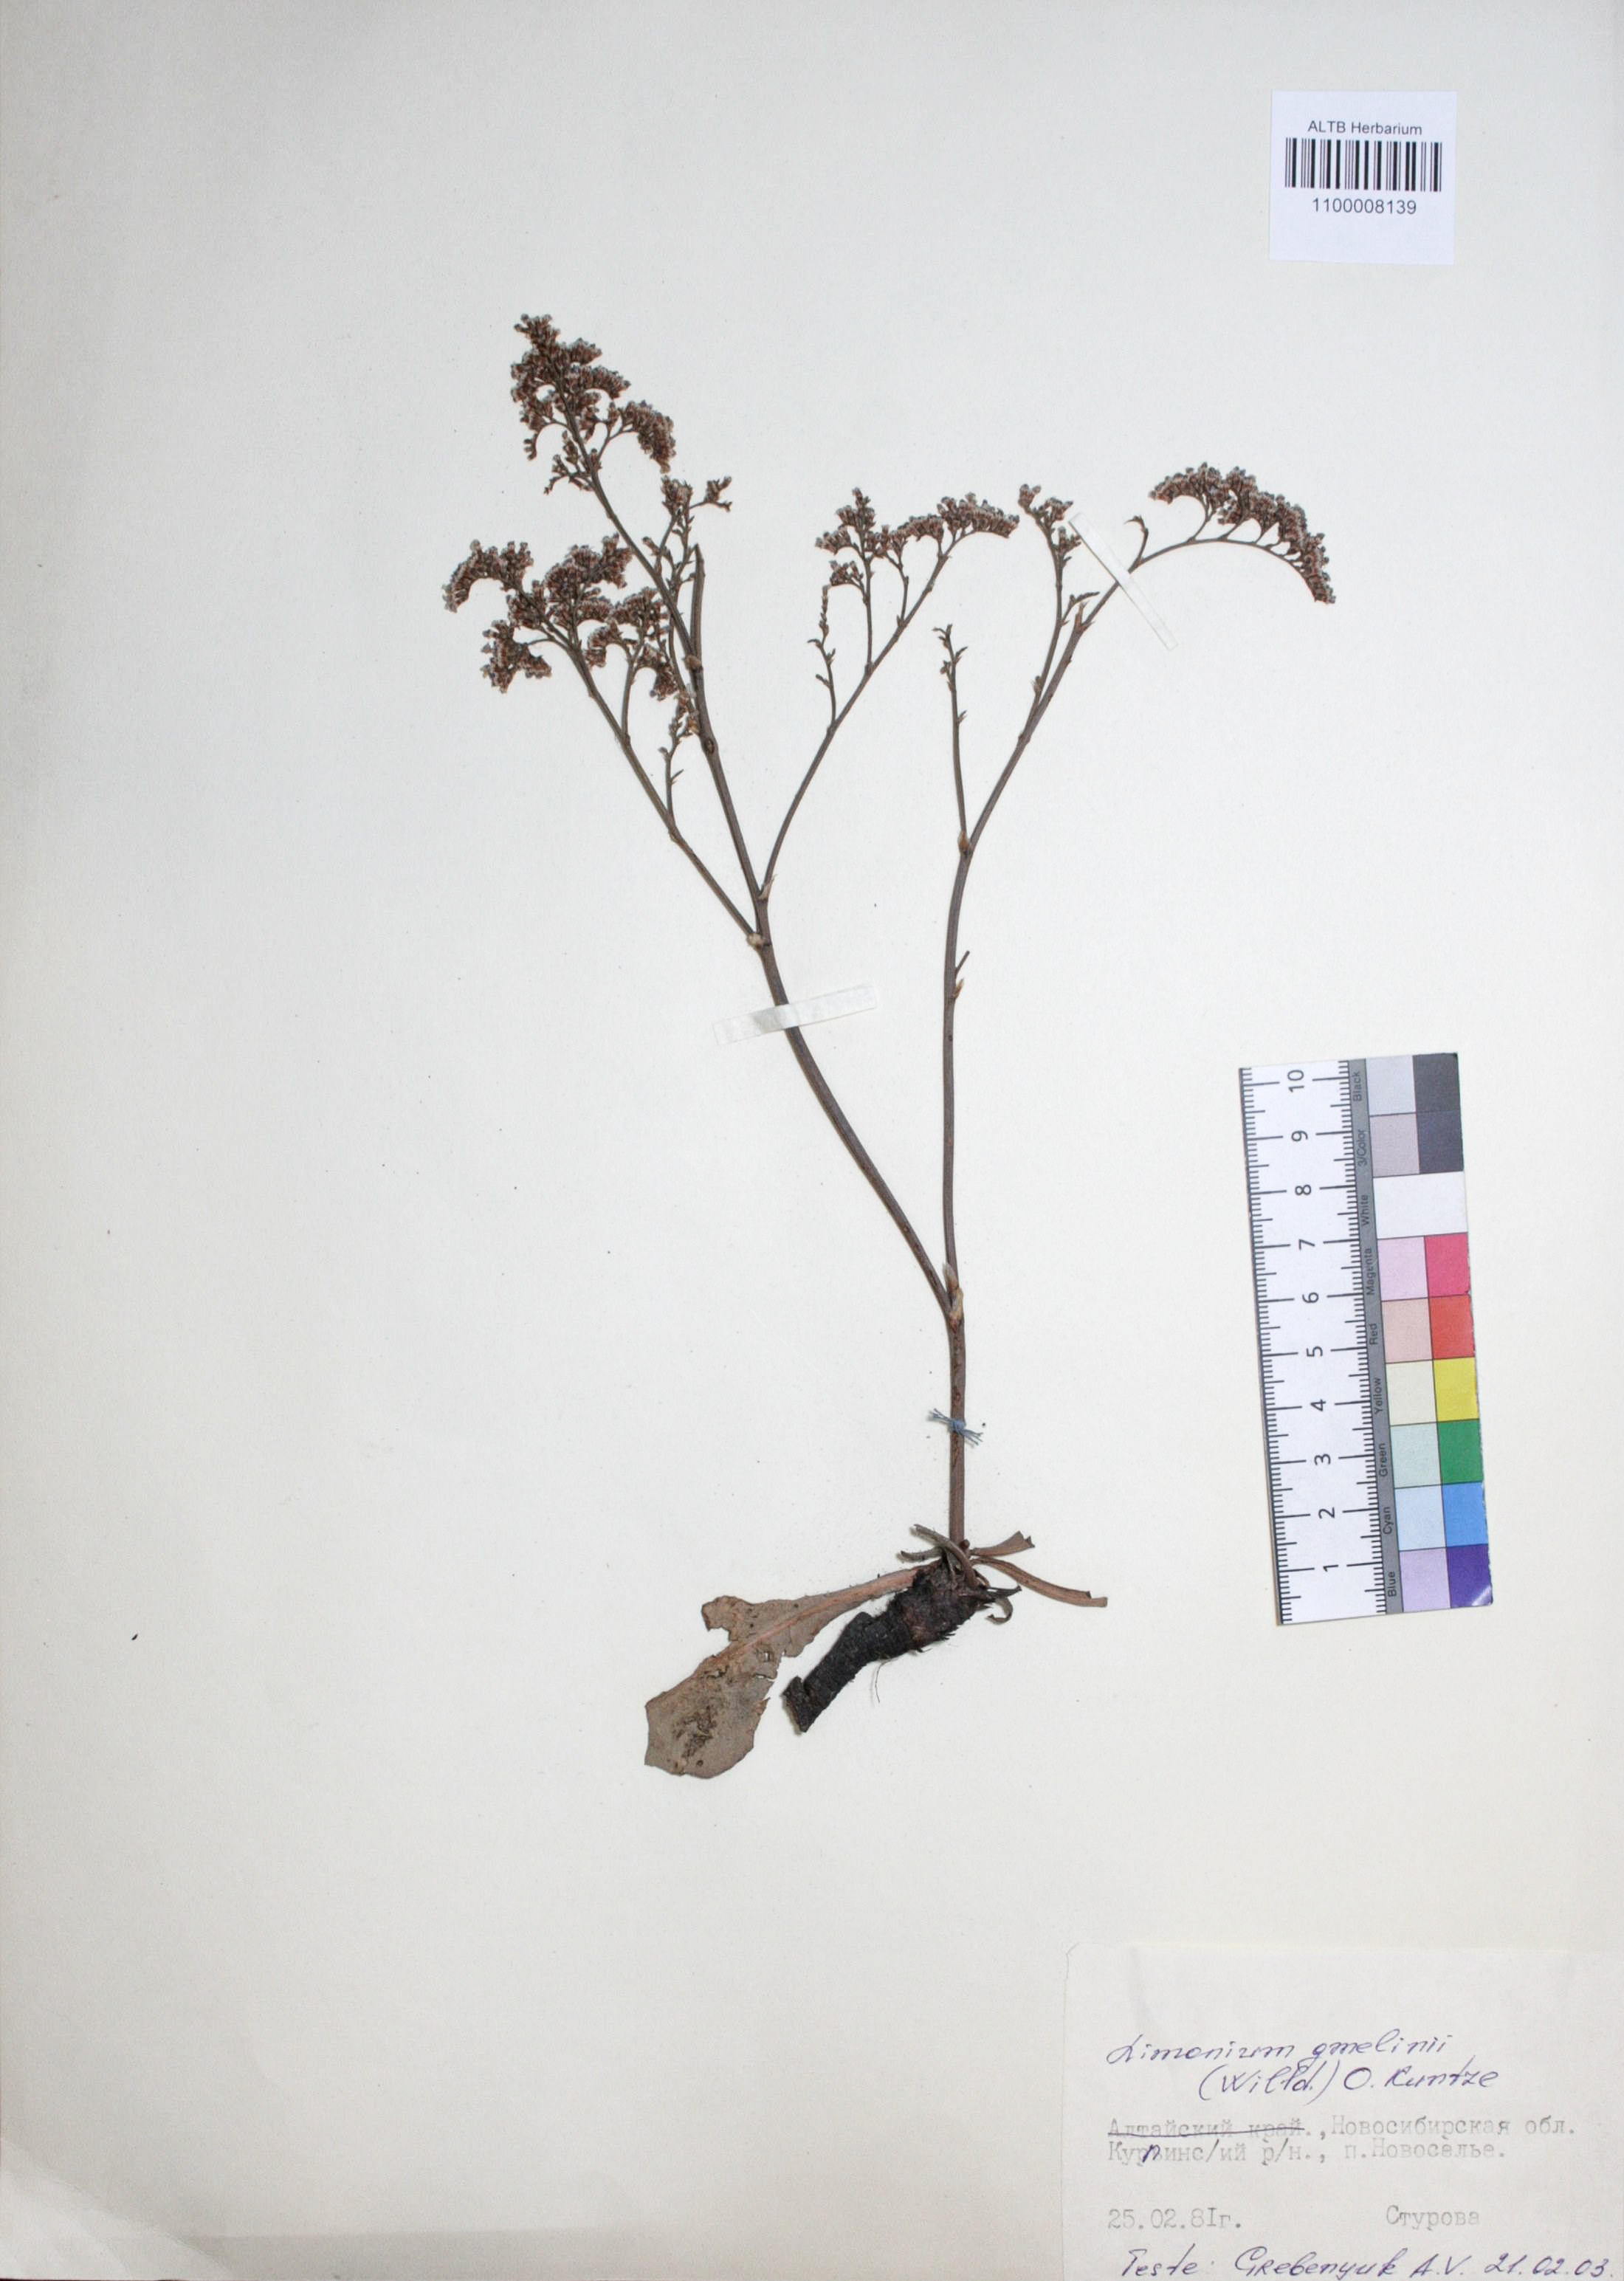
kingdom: Plantae
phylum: Tracheophyta
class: Magnoliopsida
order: Caryophyllales
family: Plumbaginaceae
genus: Limonium
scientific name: Limonium gmelini
